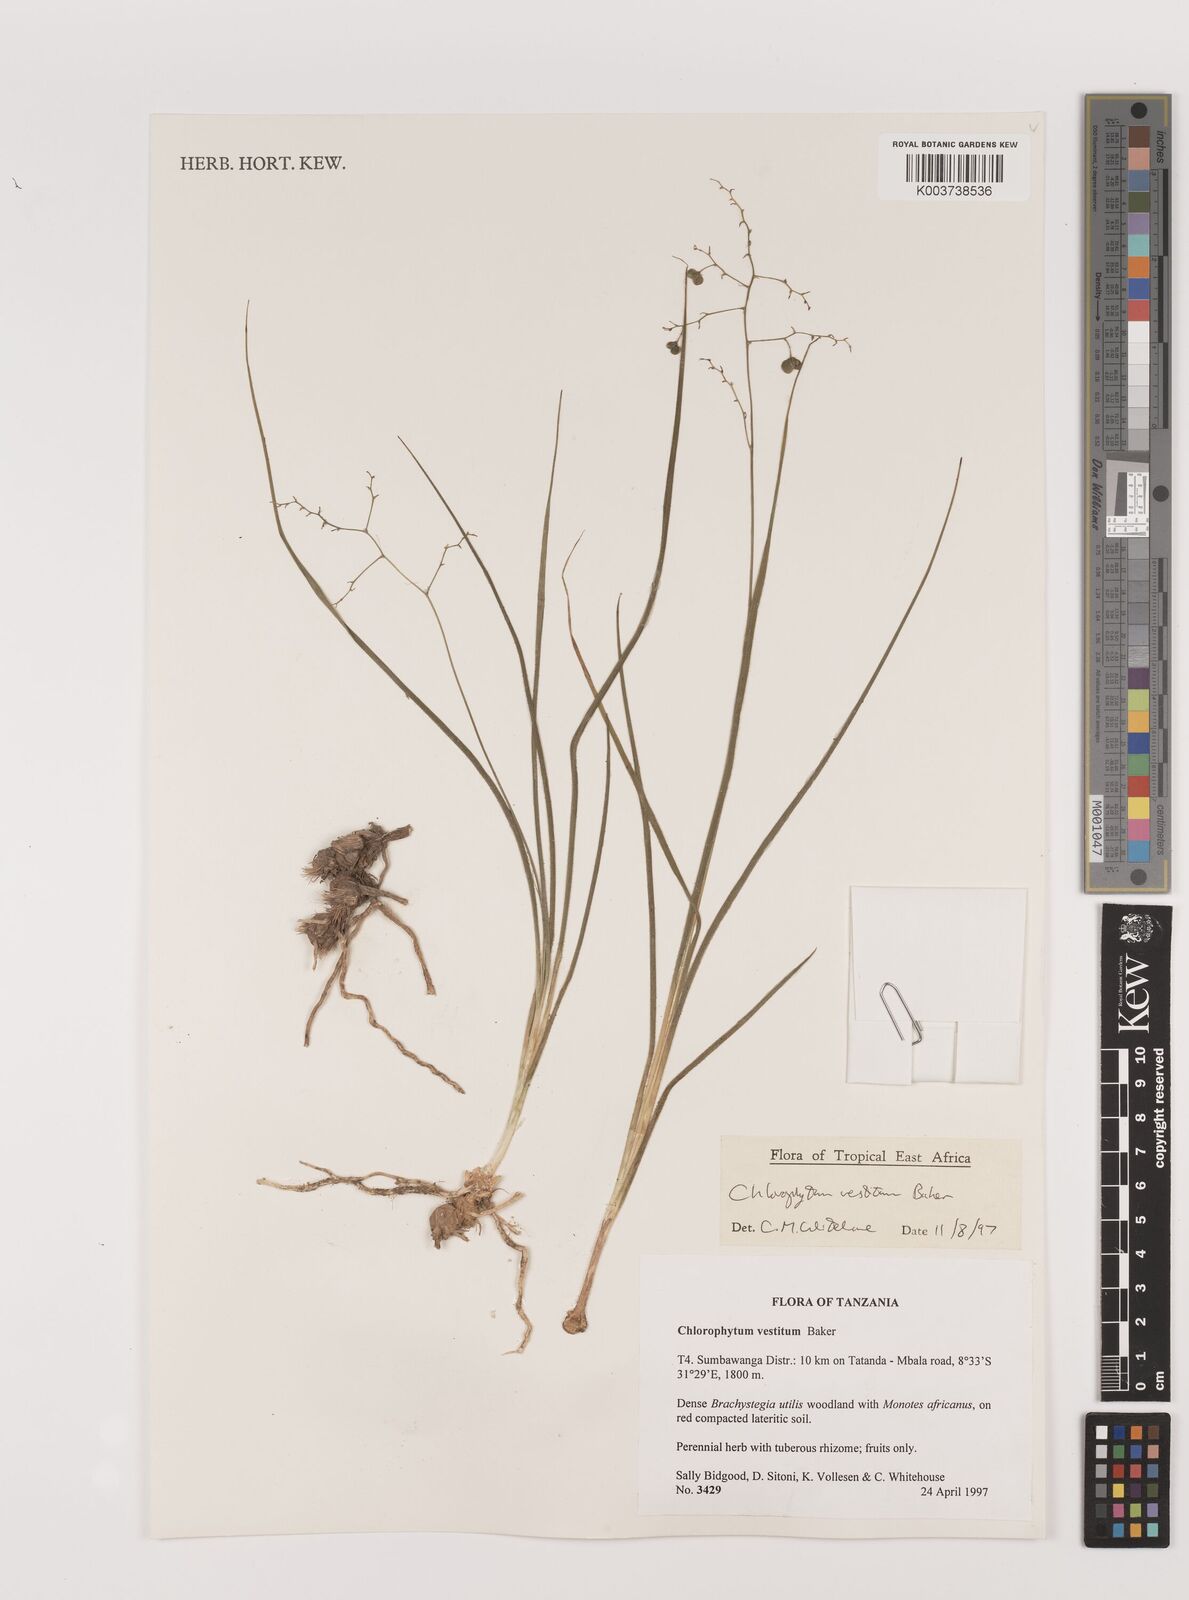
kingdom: Plantae
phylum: Tracheophyta
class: Liliopsida
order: Asparagales
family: Asparagaceae
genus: Chlorophytum
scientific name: Chlorophytum vestitum
